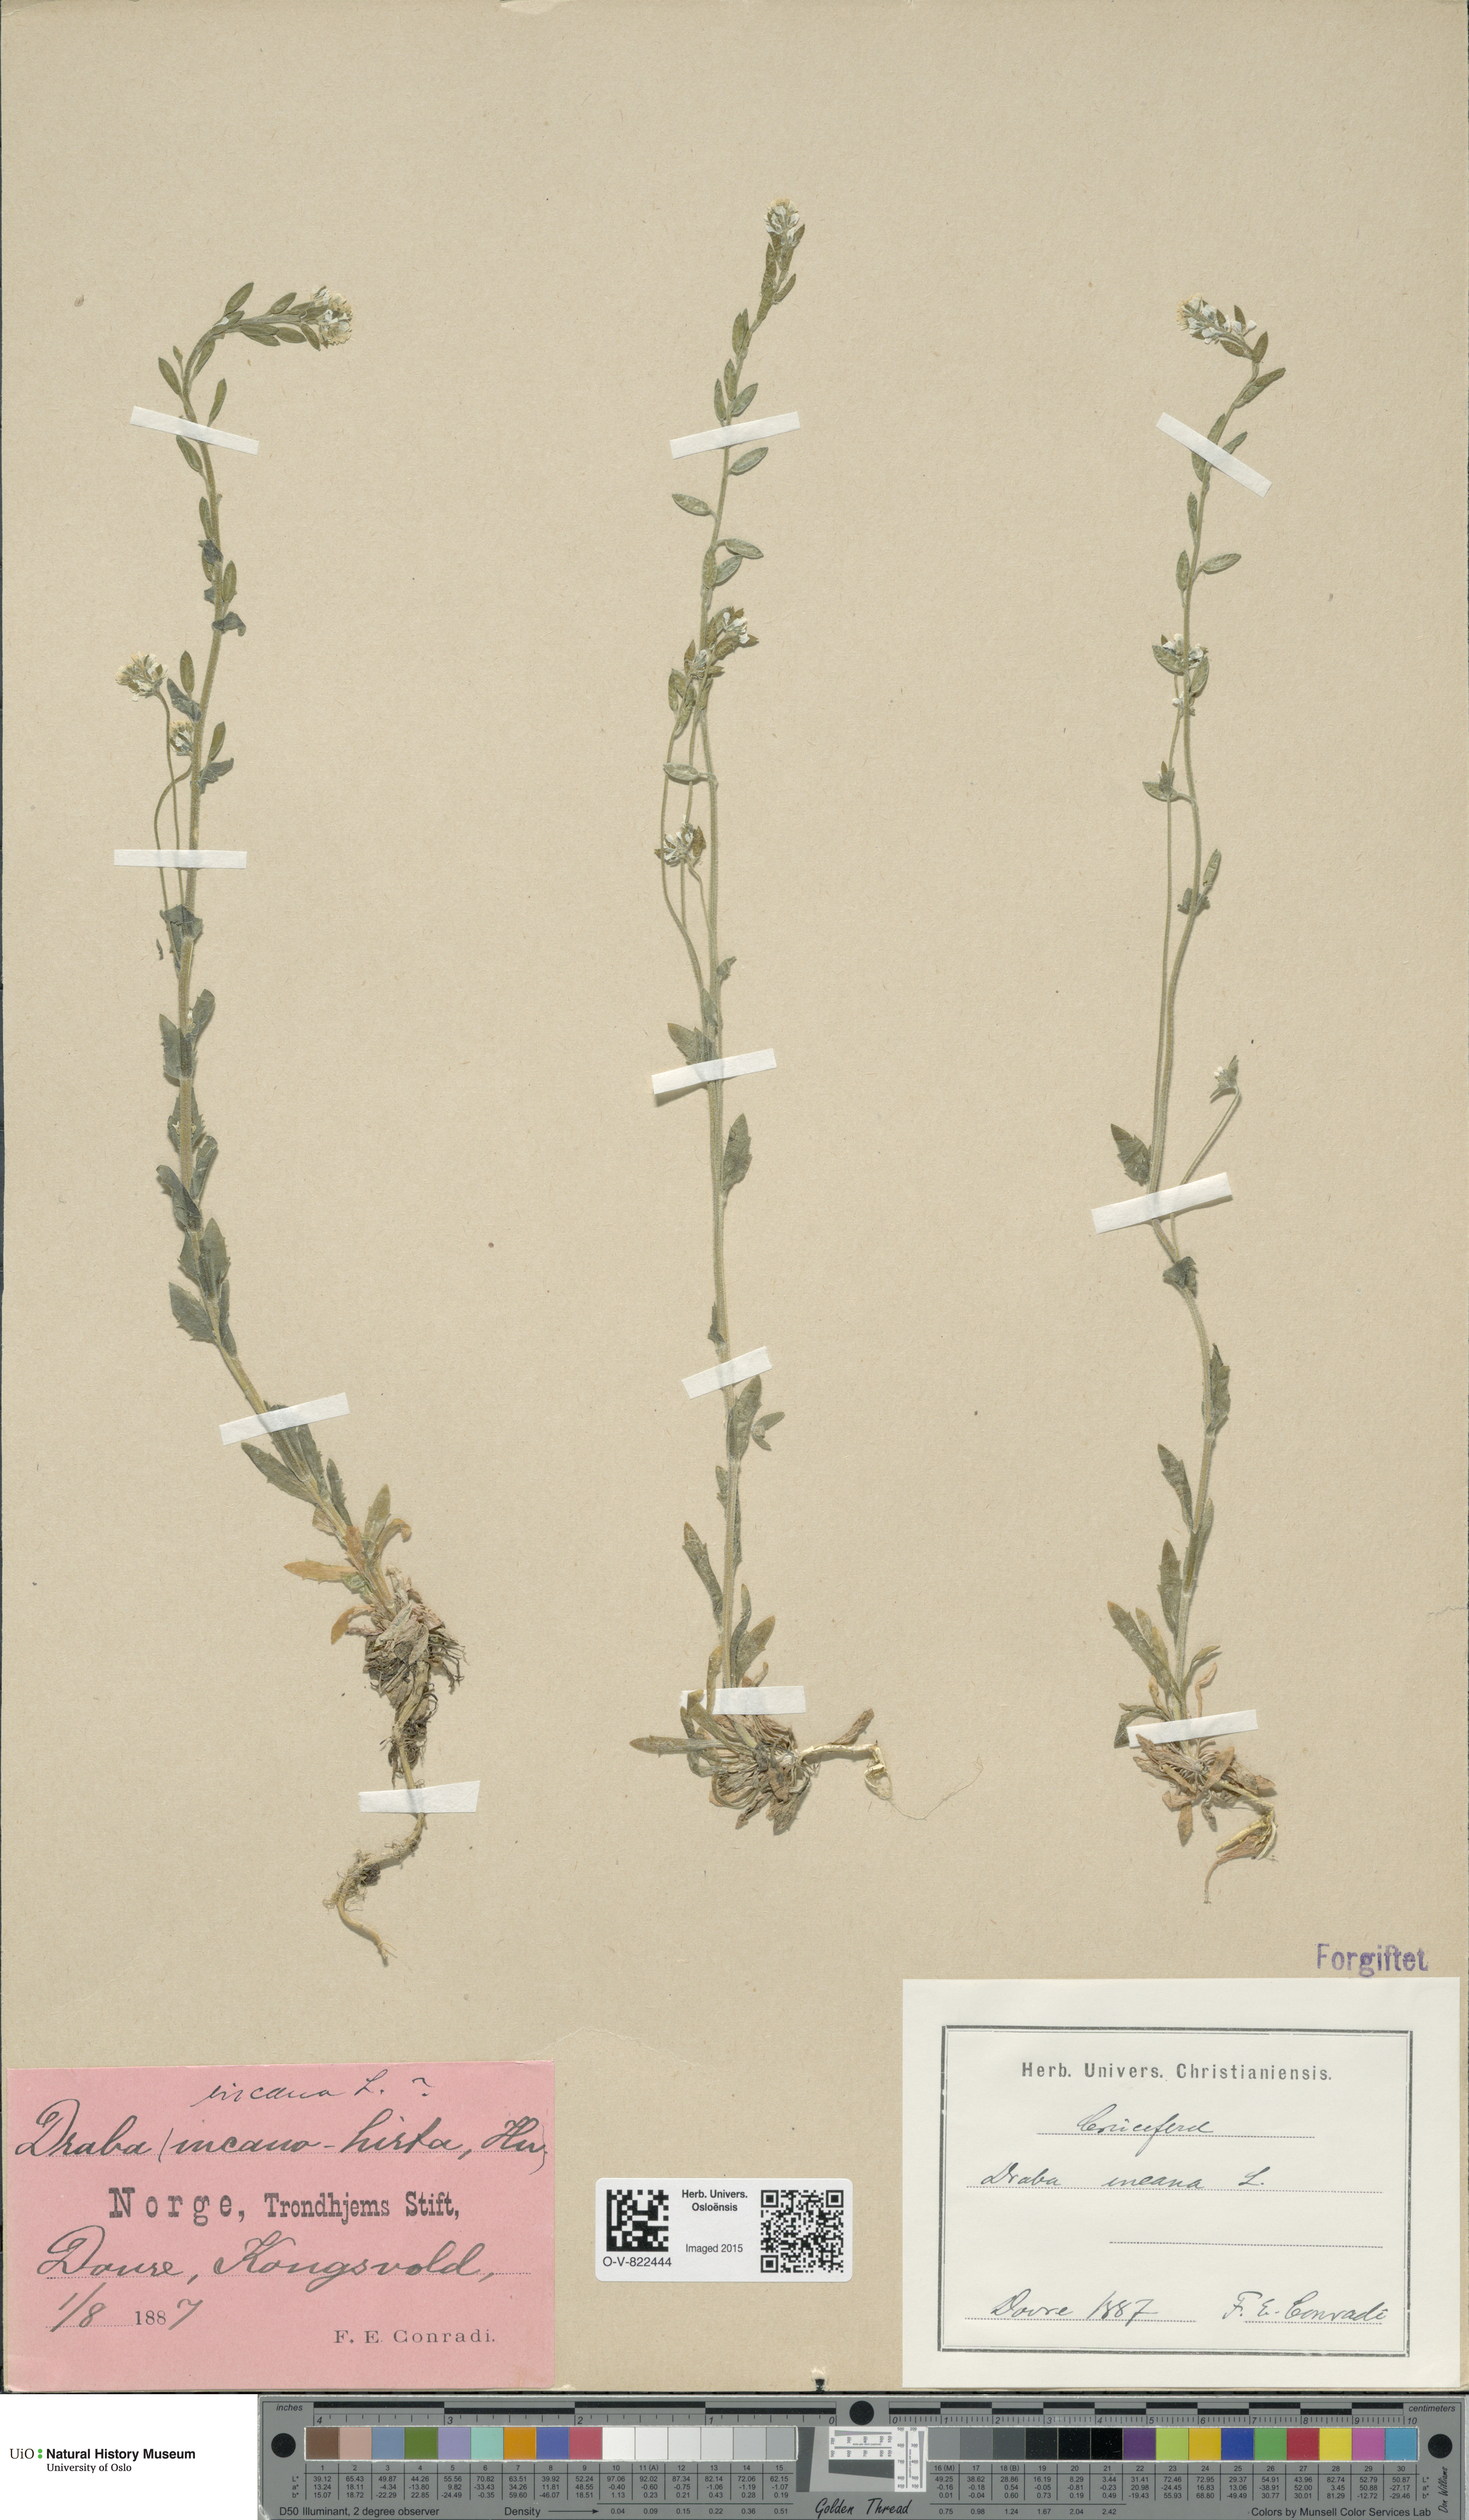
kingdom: Plantae
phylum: Tracheophyta
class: Magnoliopsida
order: Brassicales
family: Brassicaceae
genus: Draba
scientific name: Draba incana
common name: Hoary whitlow-grass
